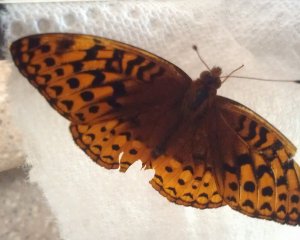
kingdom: Animalia
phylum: Arthropoda
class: Insecta
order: Lepidoptera
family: Nymphalidae
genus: Speyeria
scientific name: Speyeria cybele
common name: Great Spangled Fritillary
